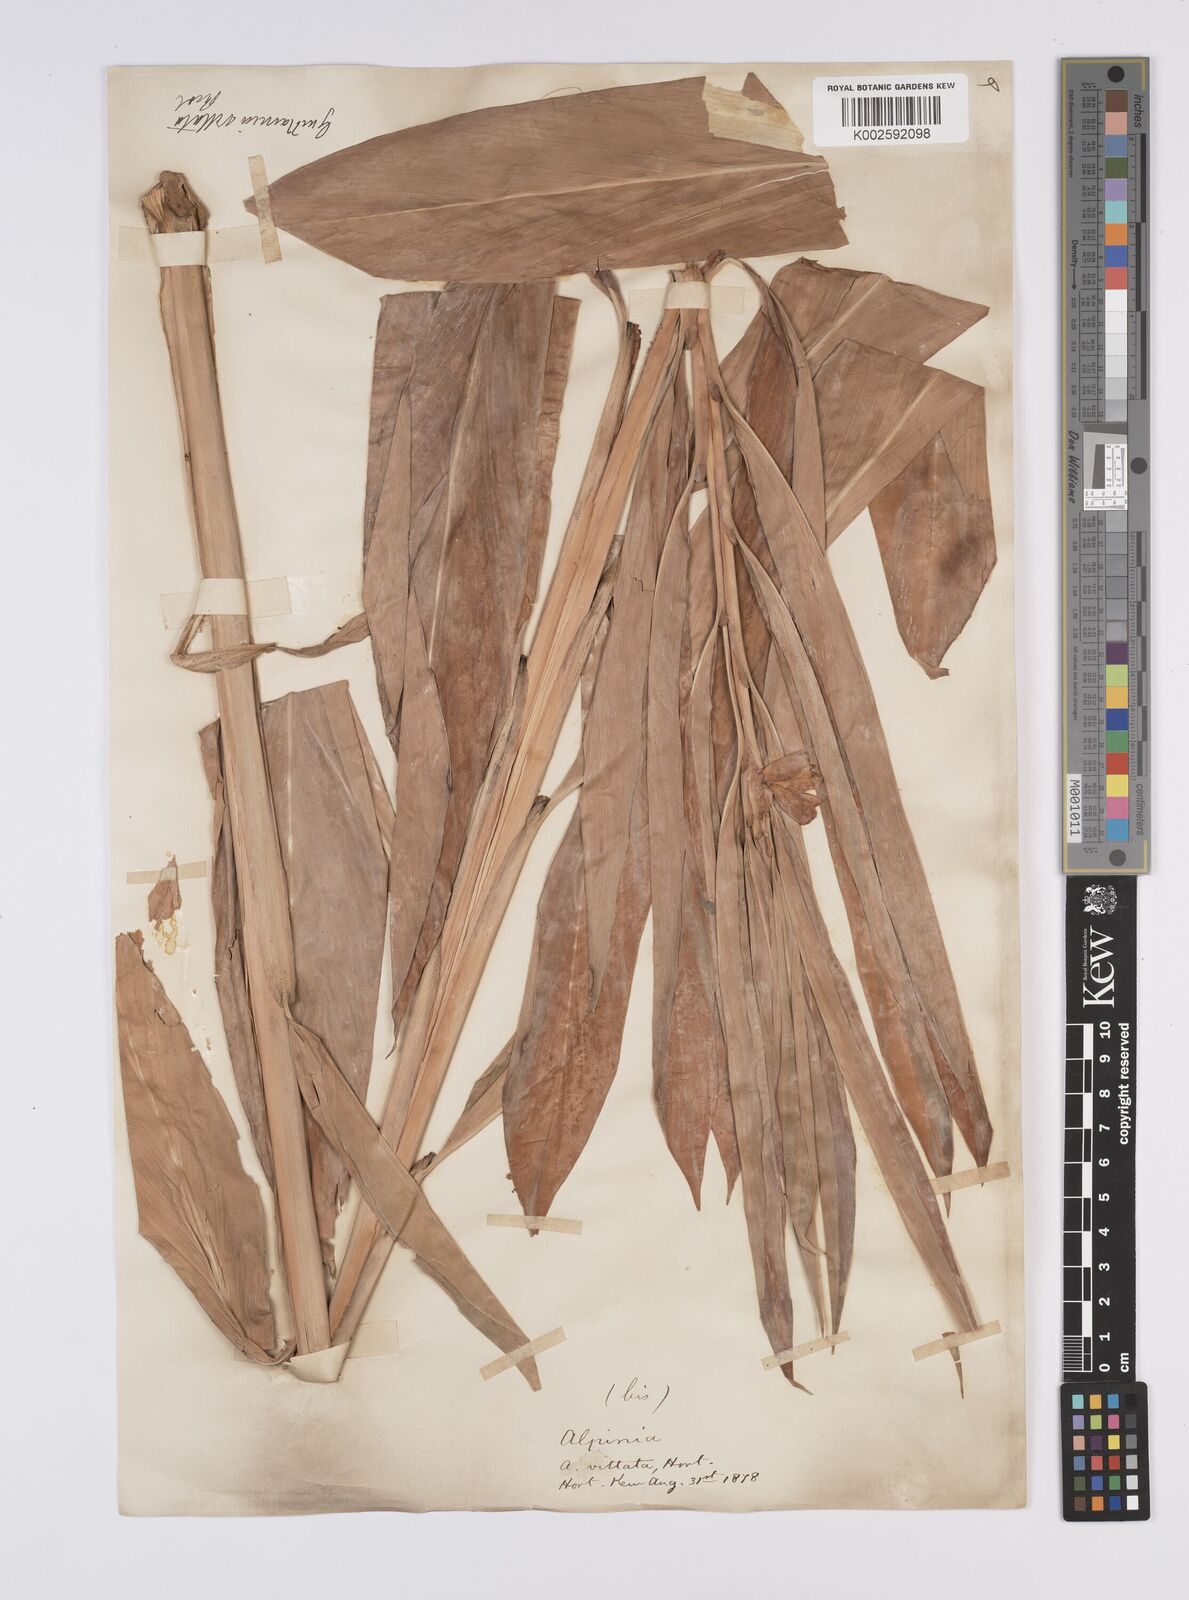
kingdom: Plantae
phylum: Tracheophyta
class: Liliopsida
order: Zingiberales
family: Zingiberaceae
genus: Alpinia
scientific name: Alpinia vittata
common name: Variegate-ginger
